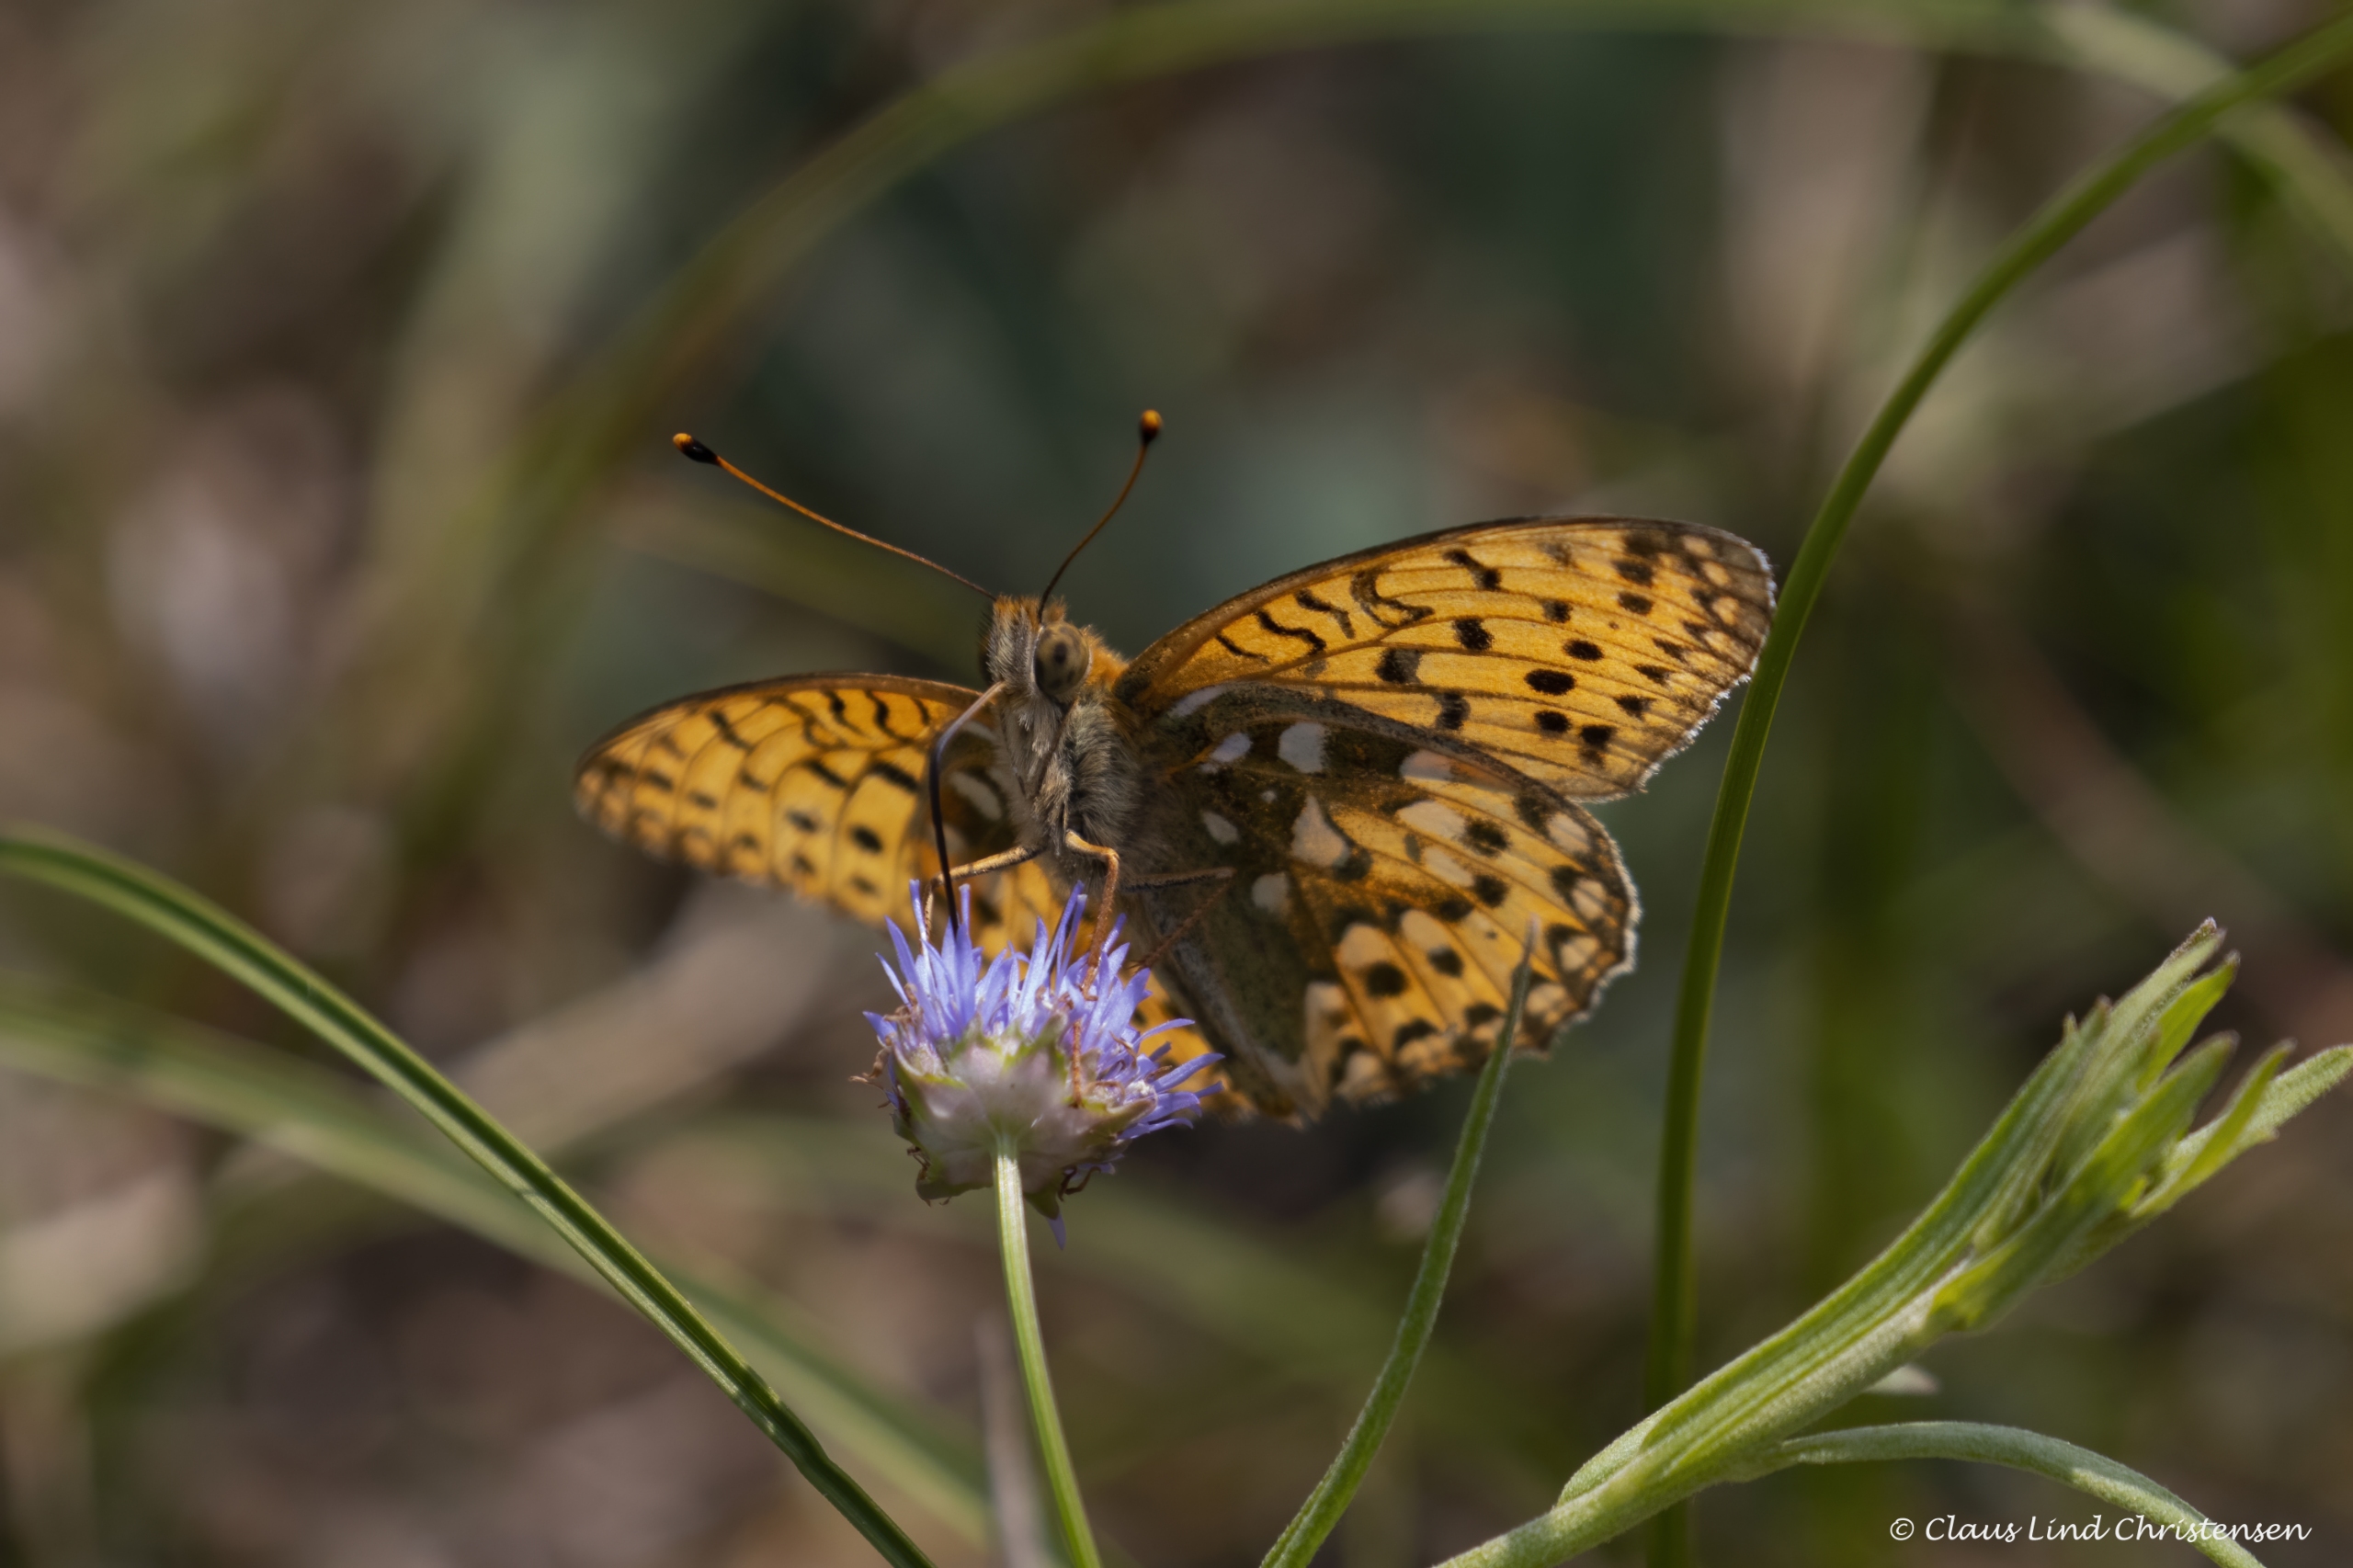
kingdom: Animalia
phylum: Arthropoda
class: Insecta
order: Lepidoptera
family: Nymphalidae
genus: Speyeria
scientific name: Speyeria aglaja
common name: Markperlemorsommerfugl
